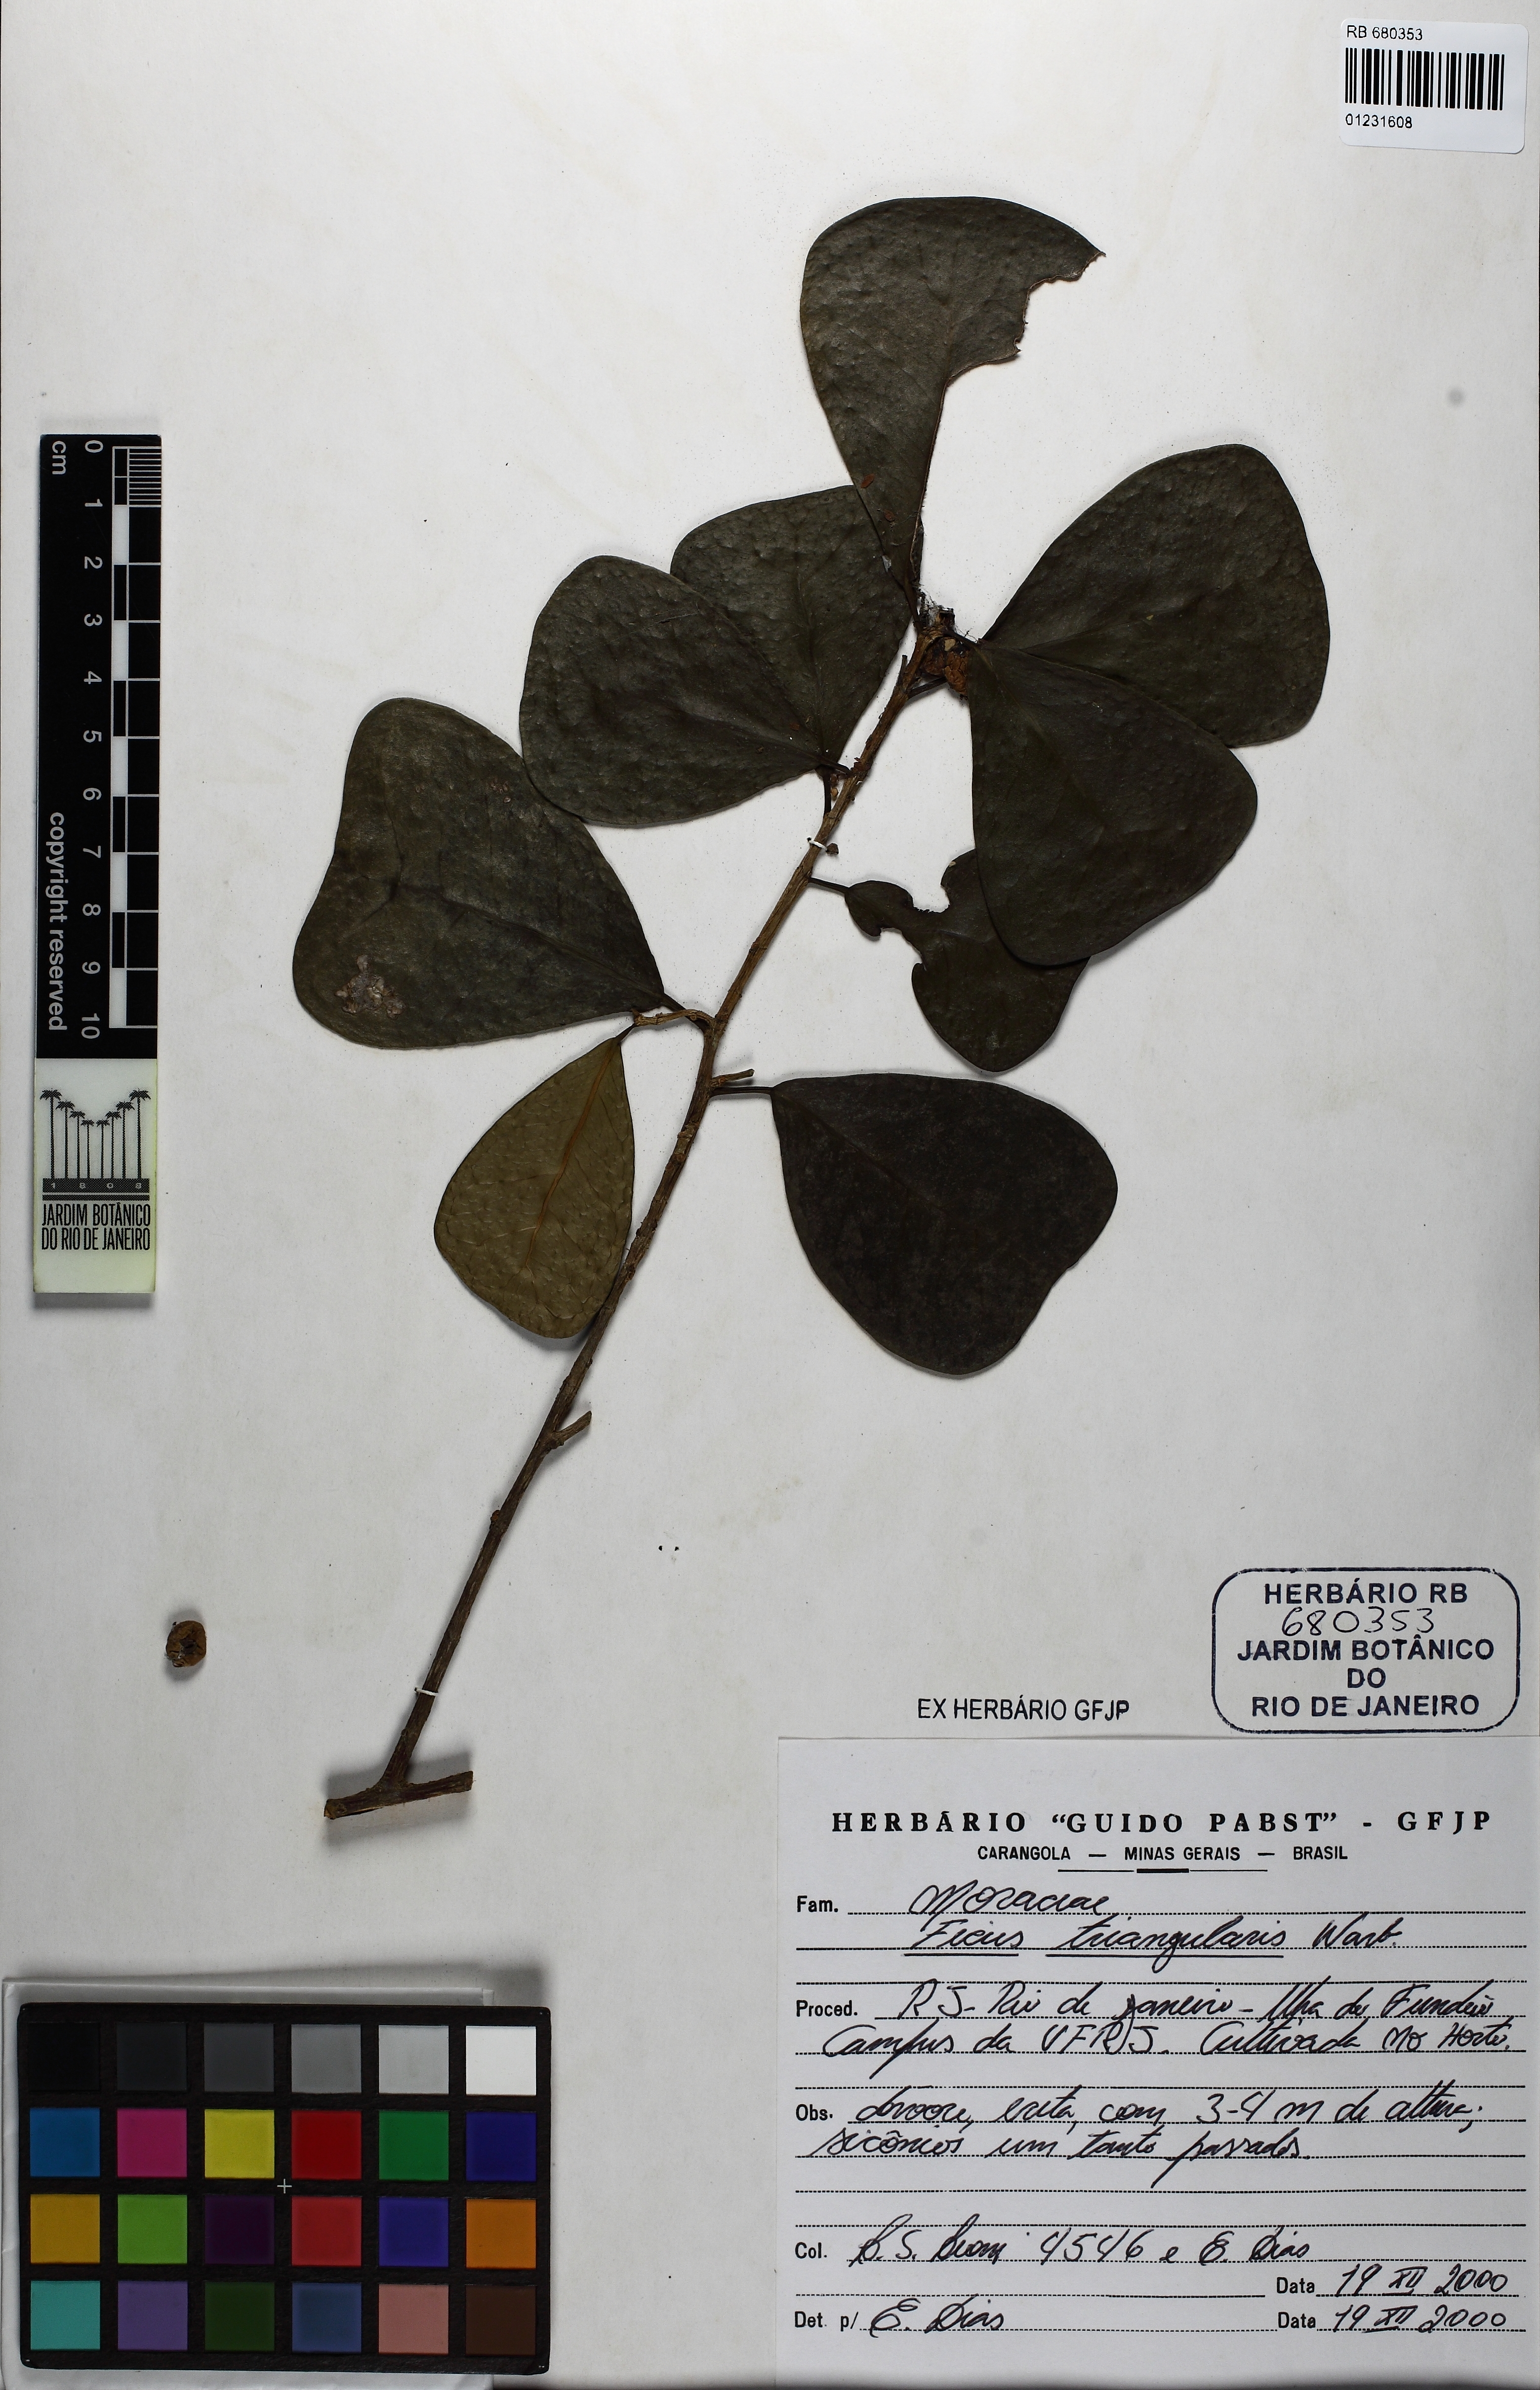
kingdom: Plantae
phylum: Tracheophyta
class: Magnoliopsida
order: Rosales
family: Moraceae
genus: Ficus
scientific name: Ficus natalensis
